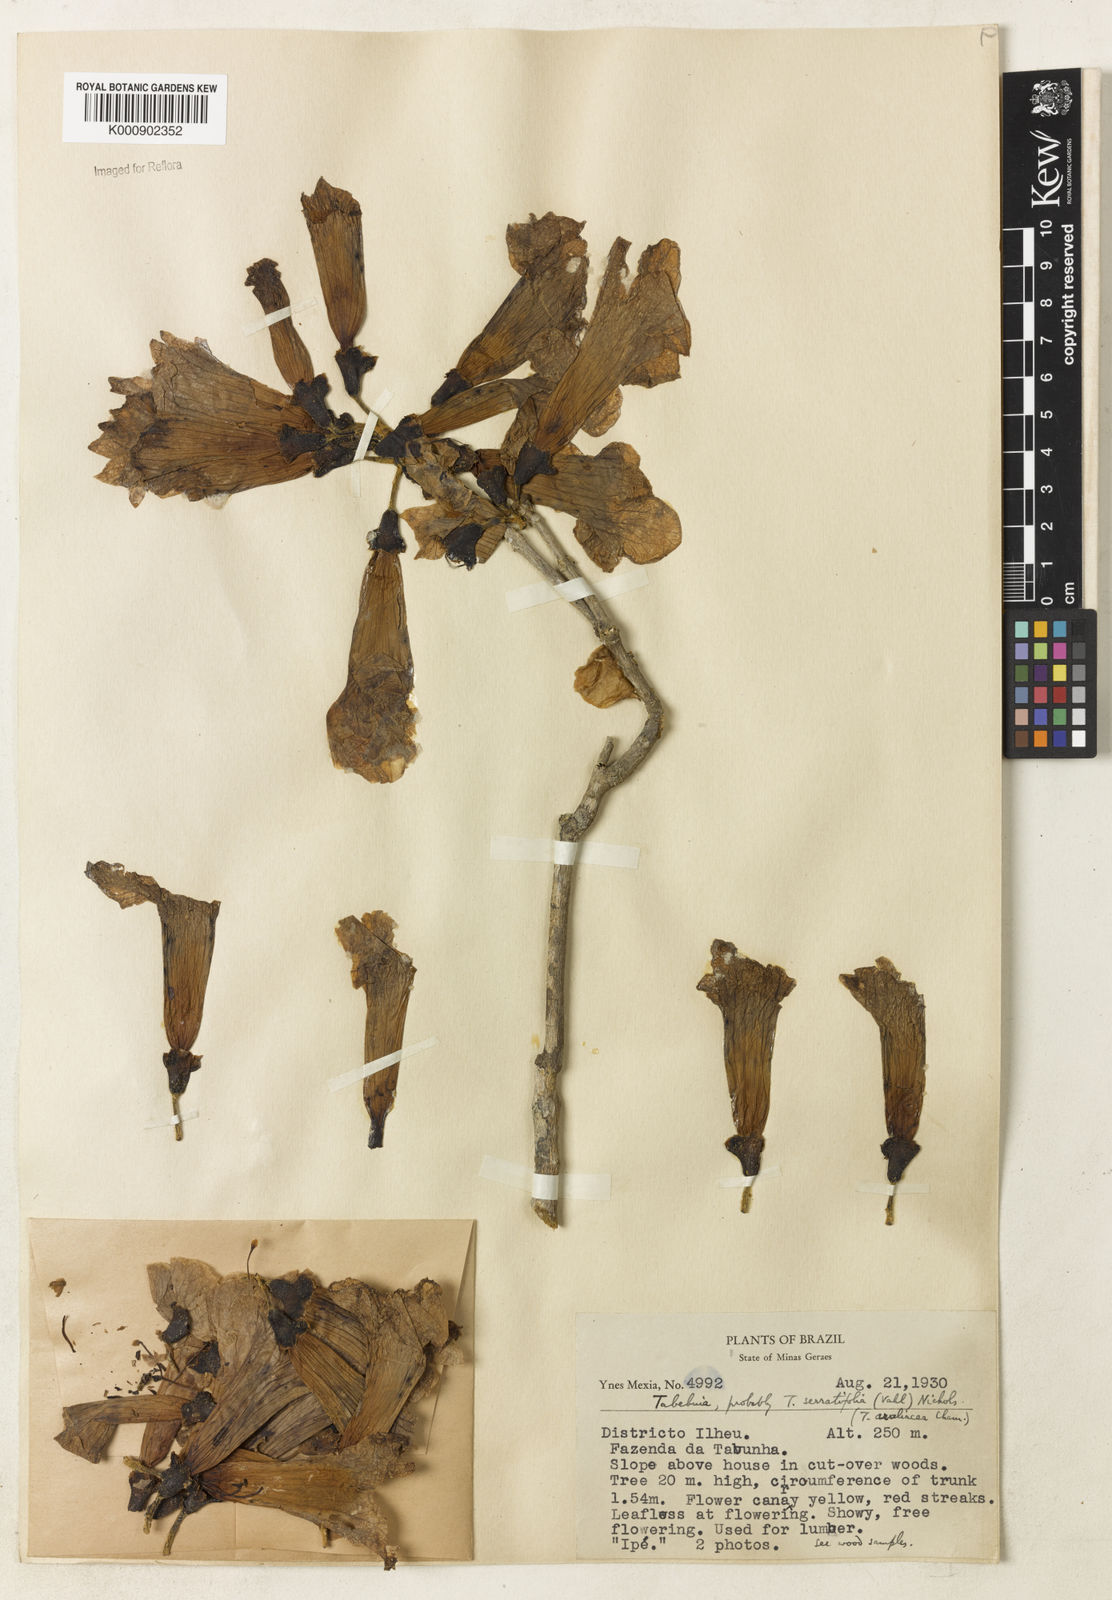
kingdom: Plantae
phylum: Tracheophyta
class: Magnoliopsida
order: Lamiales
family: Bignoniaceae
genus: Handroanthus
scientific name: Handroanthus serratifolius
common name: Yellow ipe
